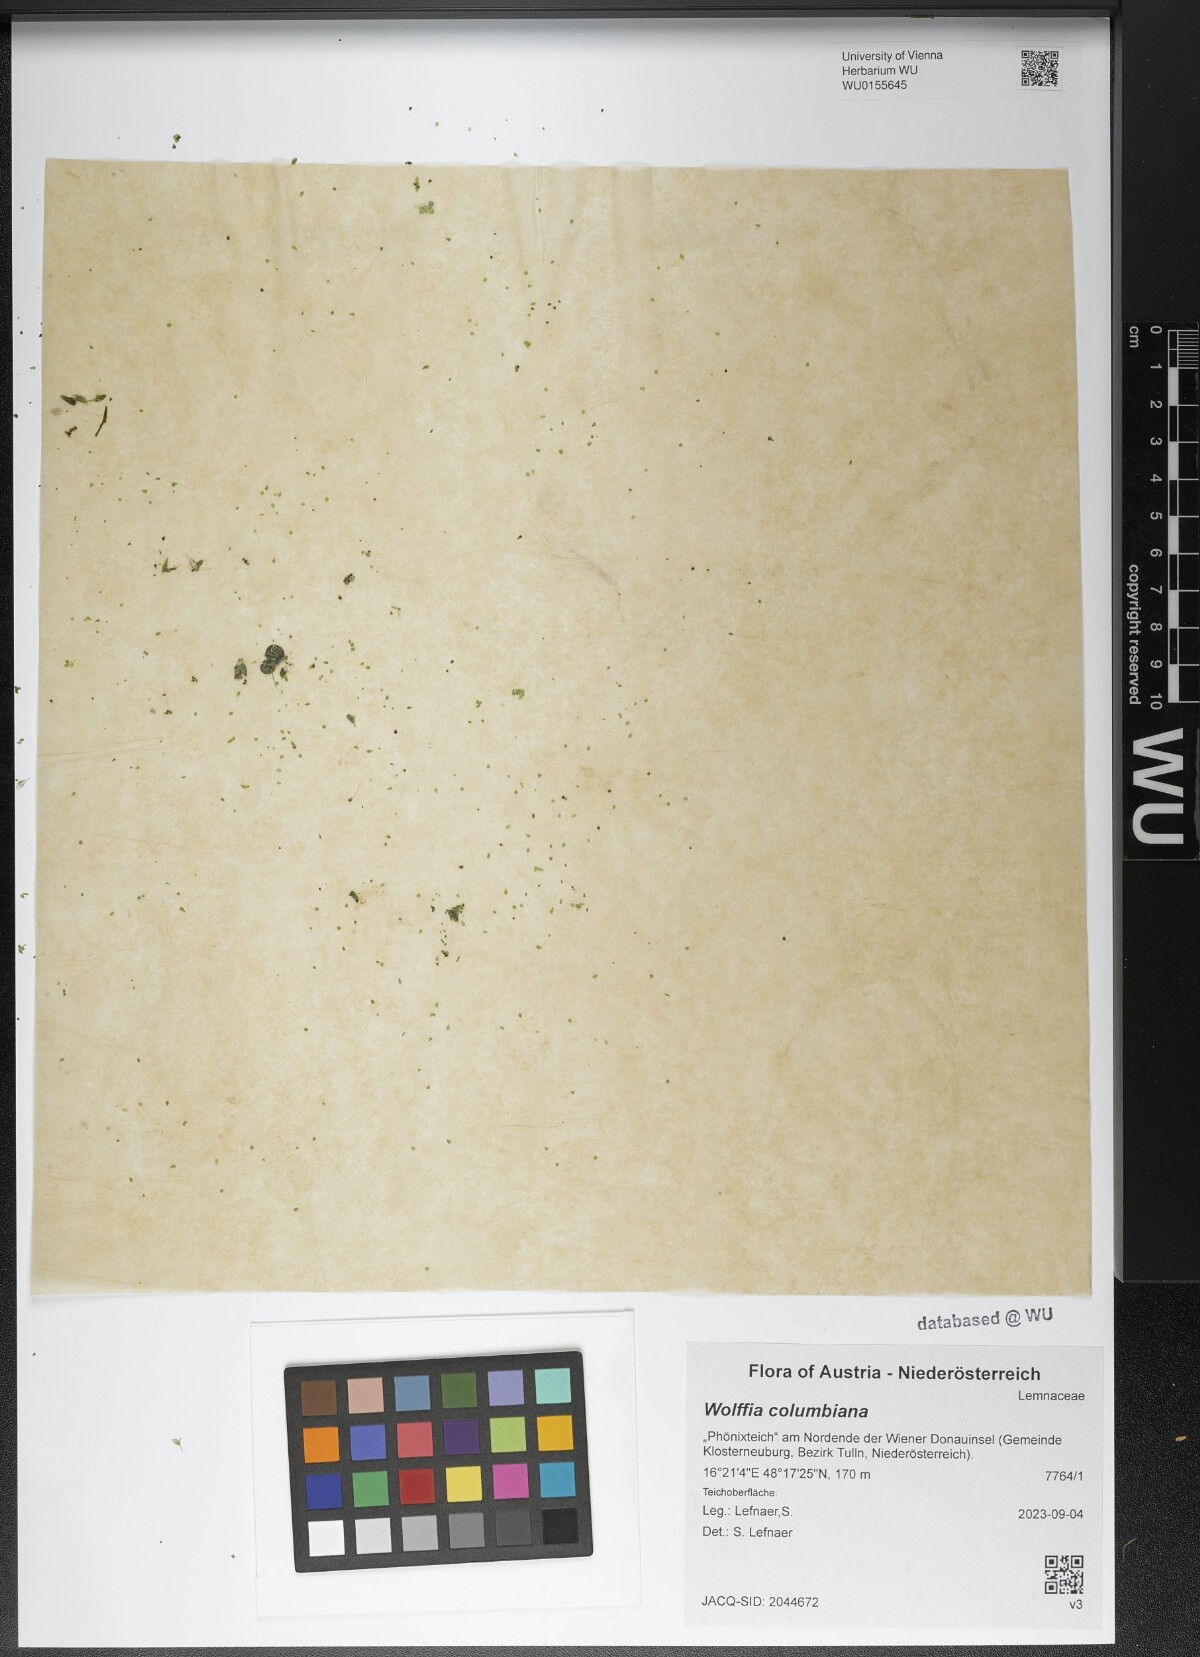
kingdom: Plantae
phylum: Tracheophyta
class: Liliopsida
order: Alismatales
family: Araceae
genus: Wolffia
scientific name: Wolffia columbiana
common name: Columbia watermeal
